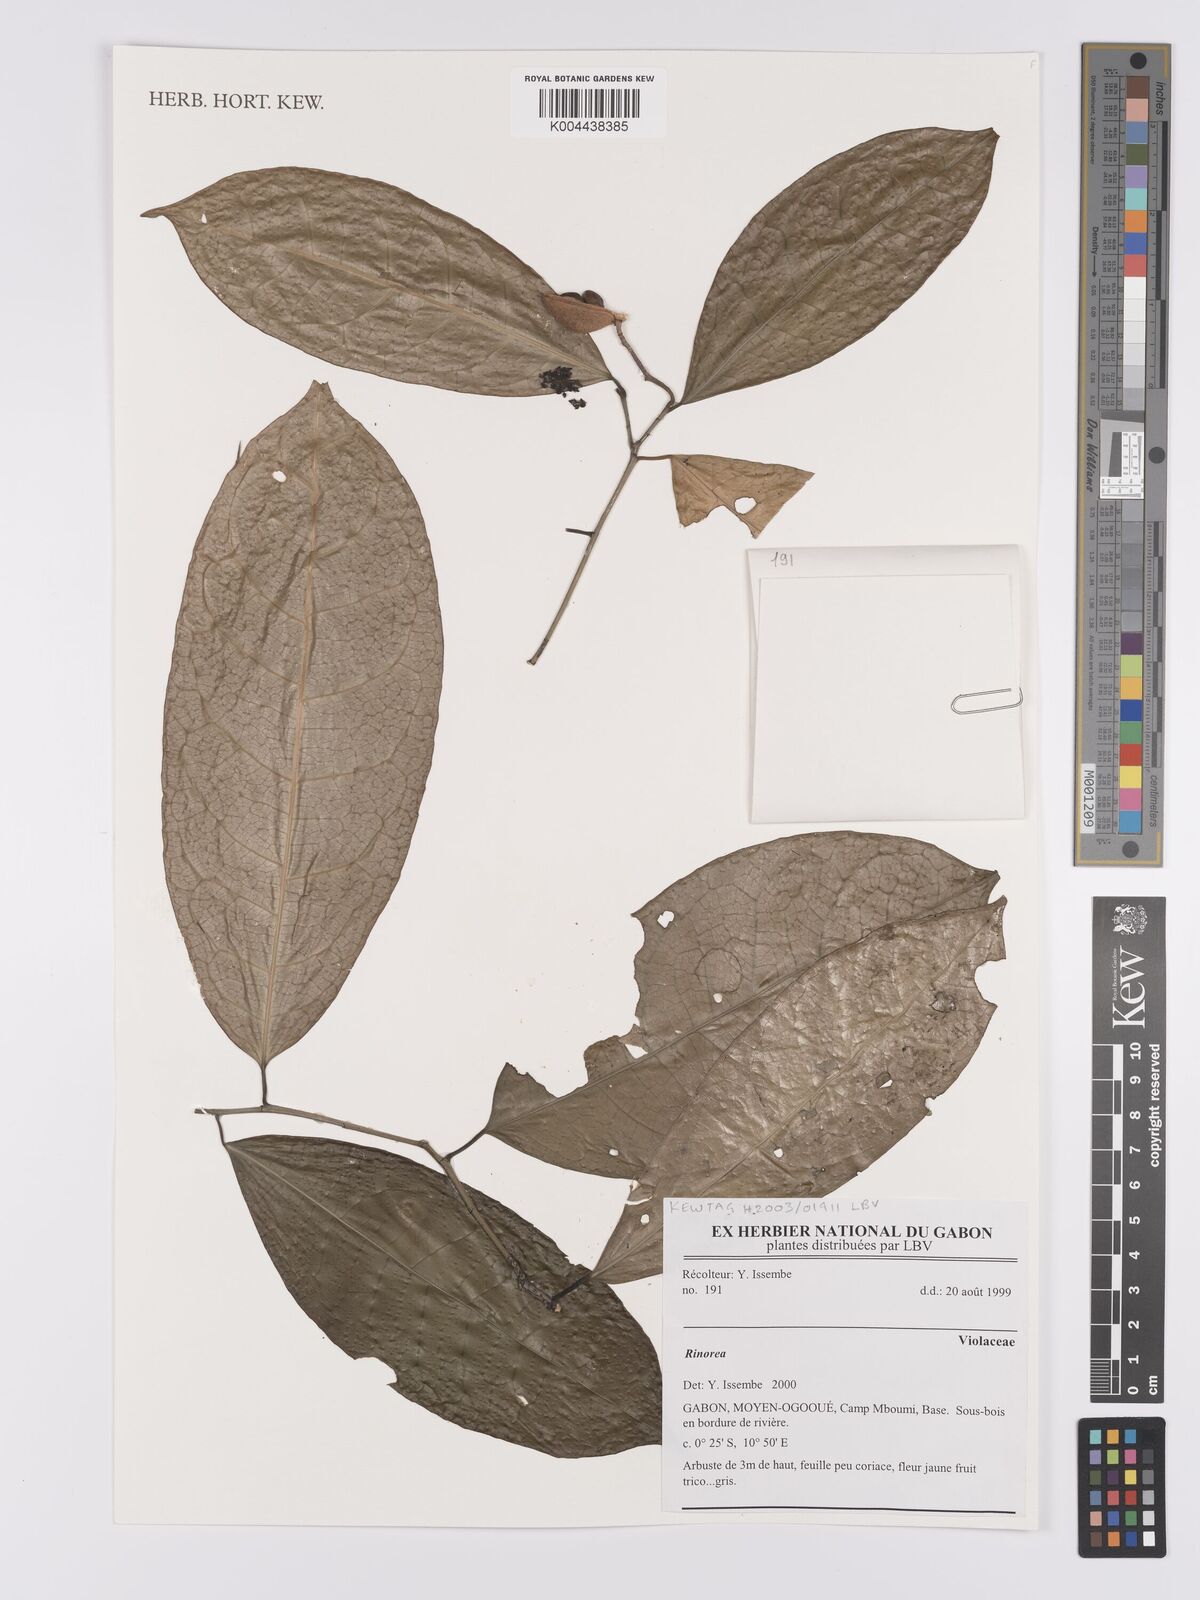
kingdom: Plantae
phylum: Tracheophyta
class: Magnoliopsida
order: Malpighiales
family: Violaceae
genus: Rinorea
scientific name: Rinorea
